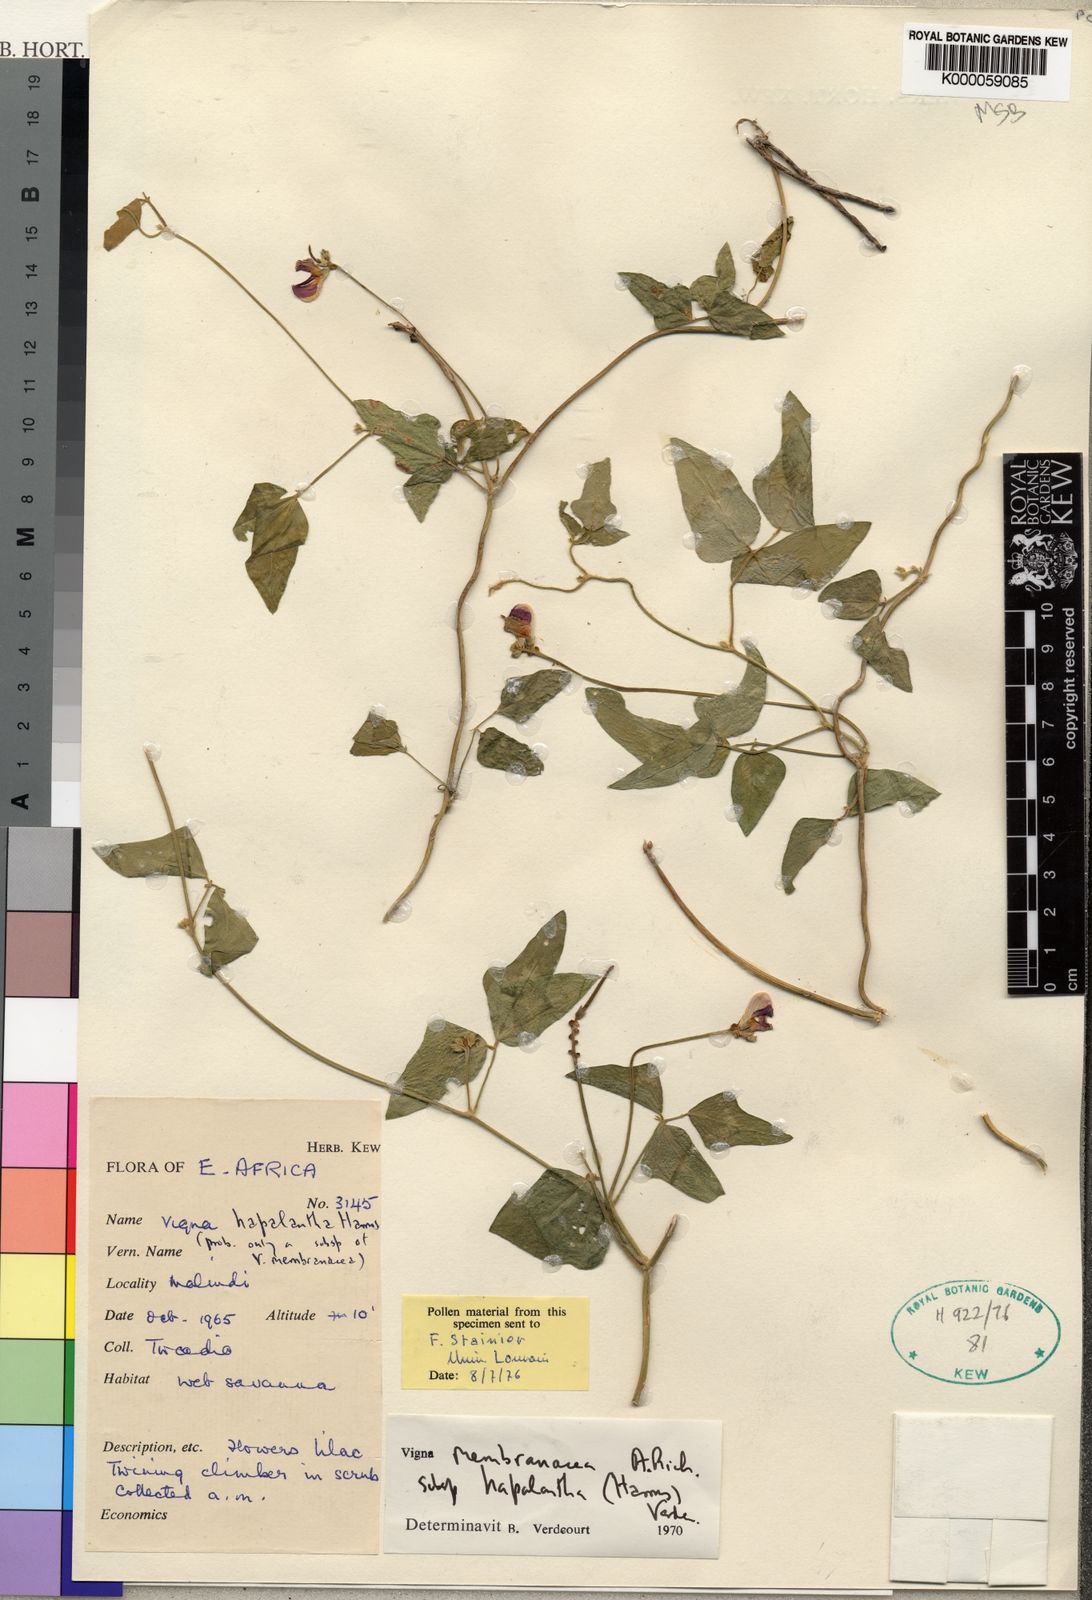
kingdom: Plantae
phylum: Tracheophyta
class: Magnoliopsida
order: Fabales
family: Fabaceae
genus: Vigna
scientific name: Vigna membranacea
